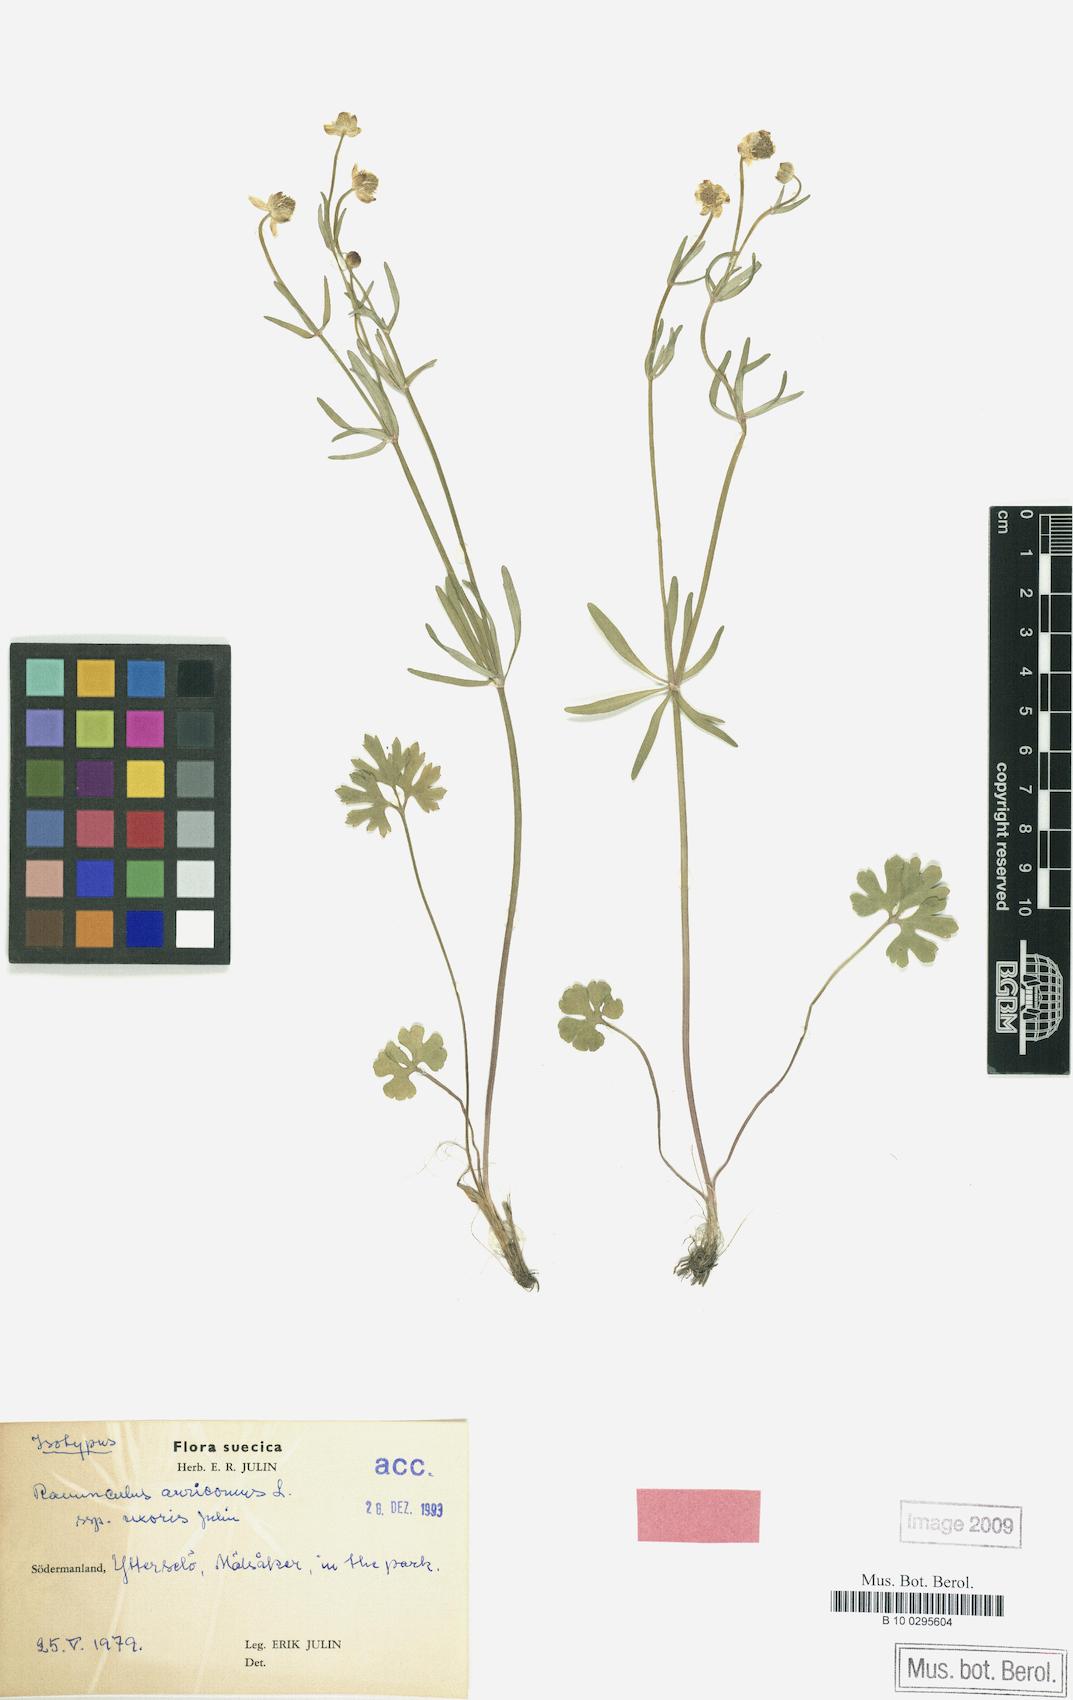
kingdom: Plantae
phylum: Tracheophyta
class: Magnoliopsida
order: Ranunculales
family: Ranunculaceae
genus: Ranunculus
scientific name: Ranunculus uxoris
